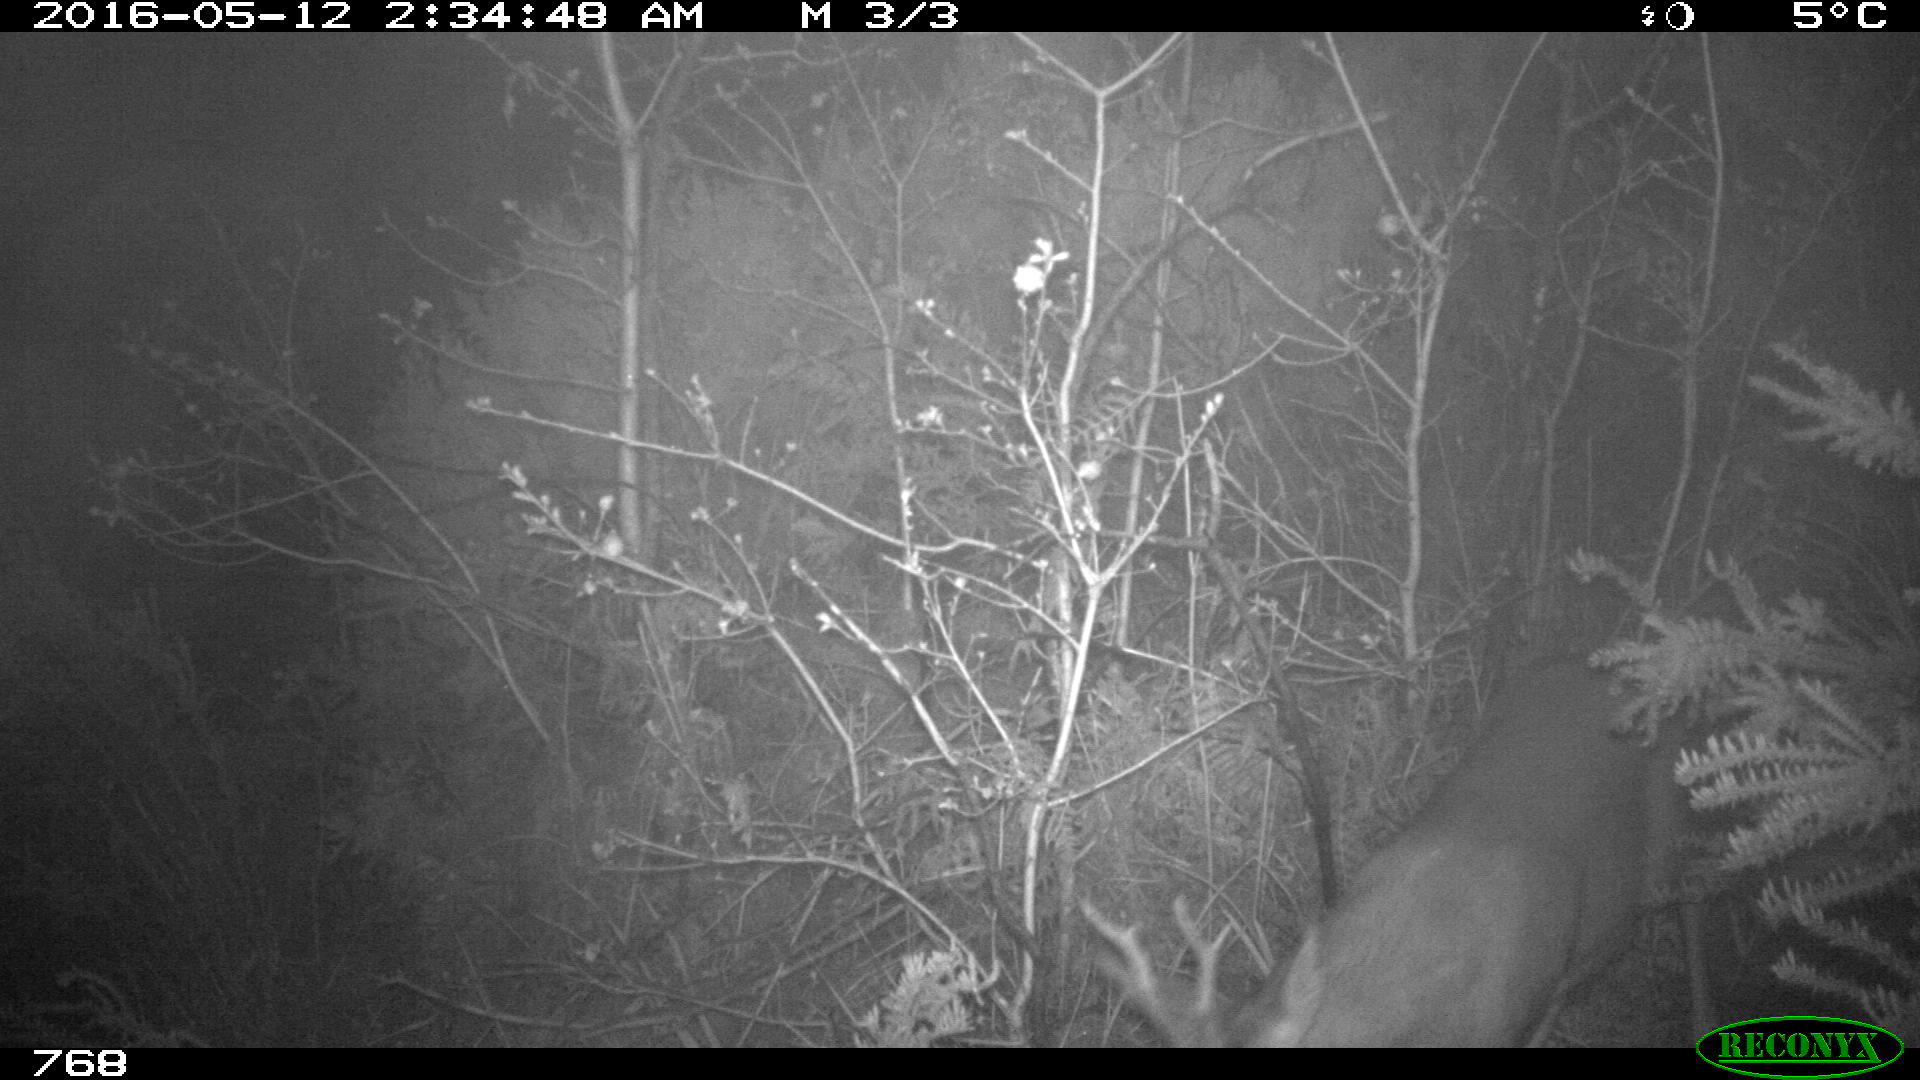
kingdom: Animalia
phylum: Chordata
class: Mammalia
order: Artiodactyla
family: Cervidae
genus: Capreolus
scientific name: Capreolus capreolus
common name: Western roe deer
